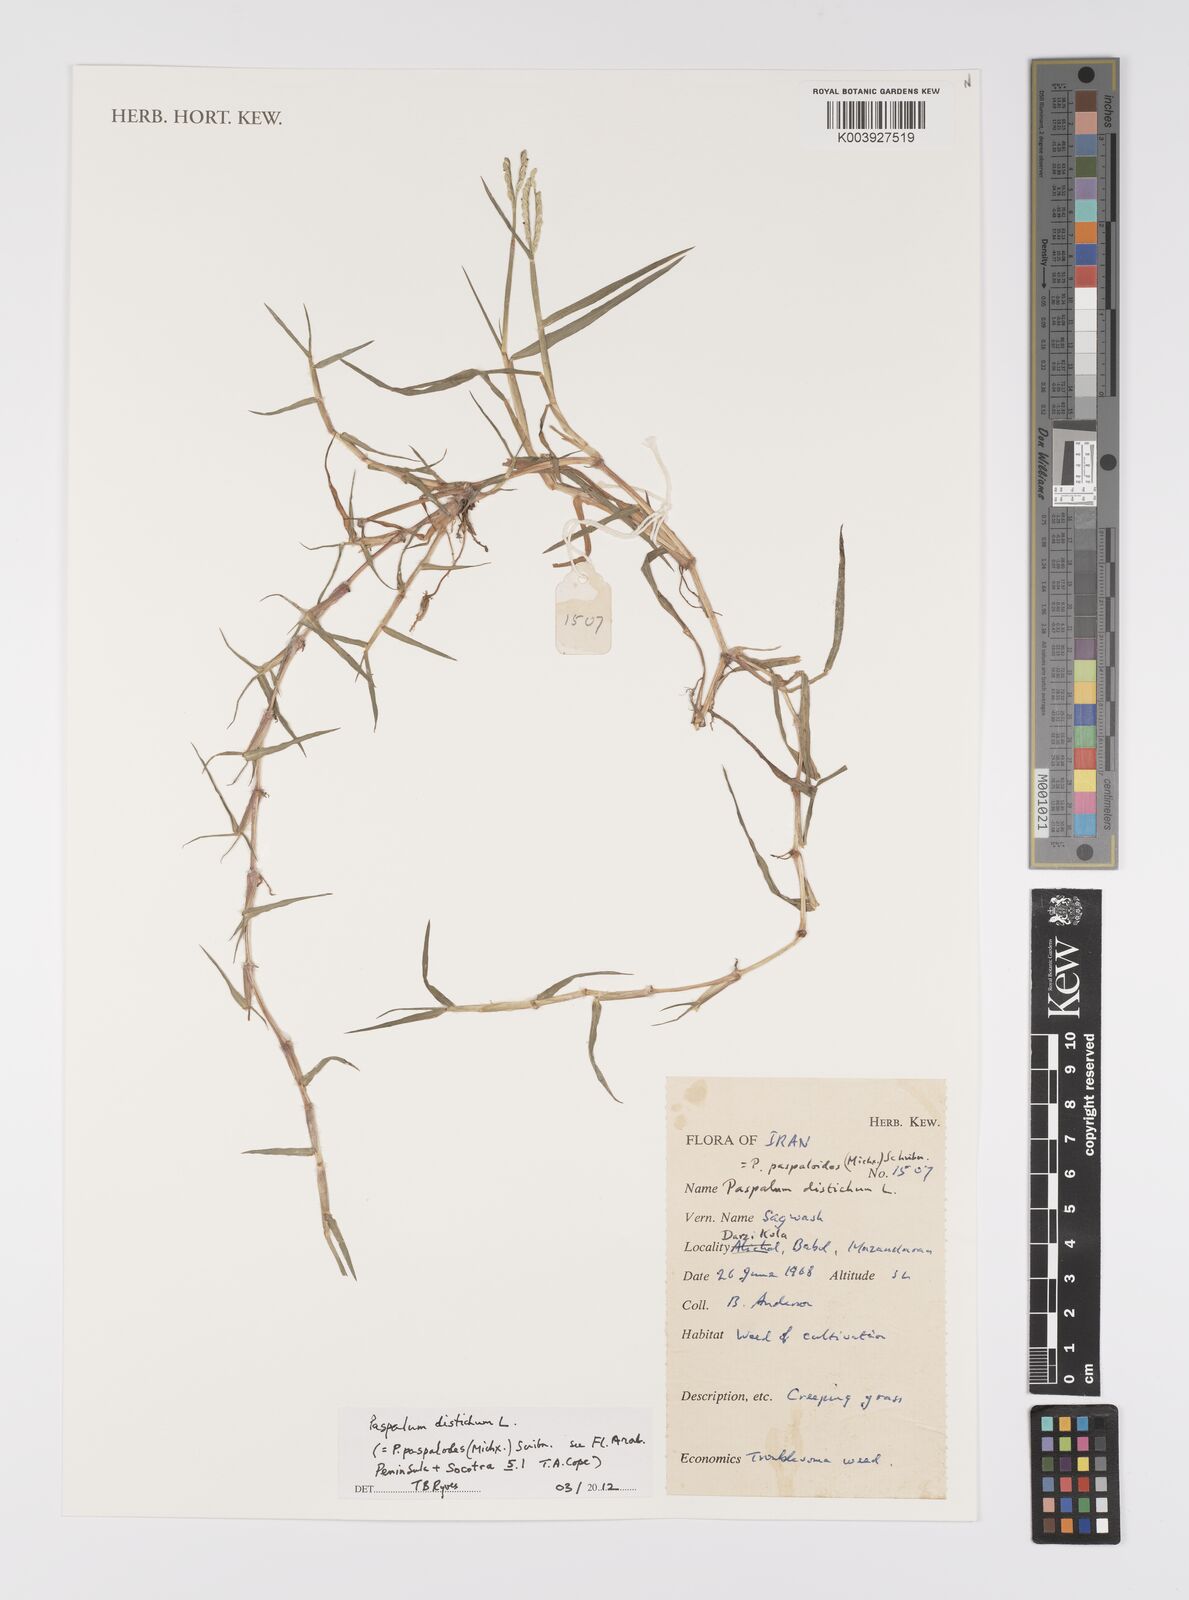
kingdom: Plantae
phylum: Tracheophyta
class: Liliopsida
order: Poales
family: Poaceae
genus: Paspalum
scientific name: Paspalum distichum
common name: Knotgrass
